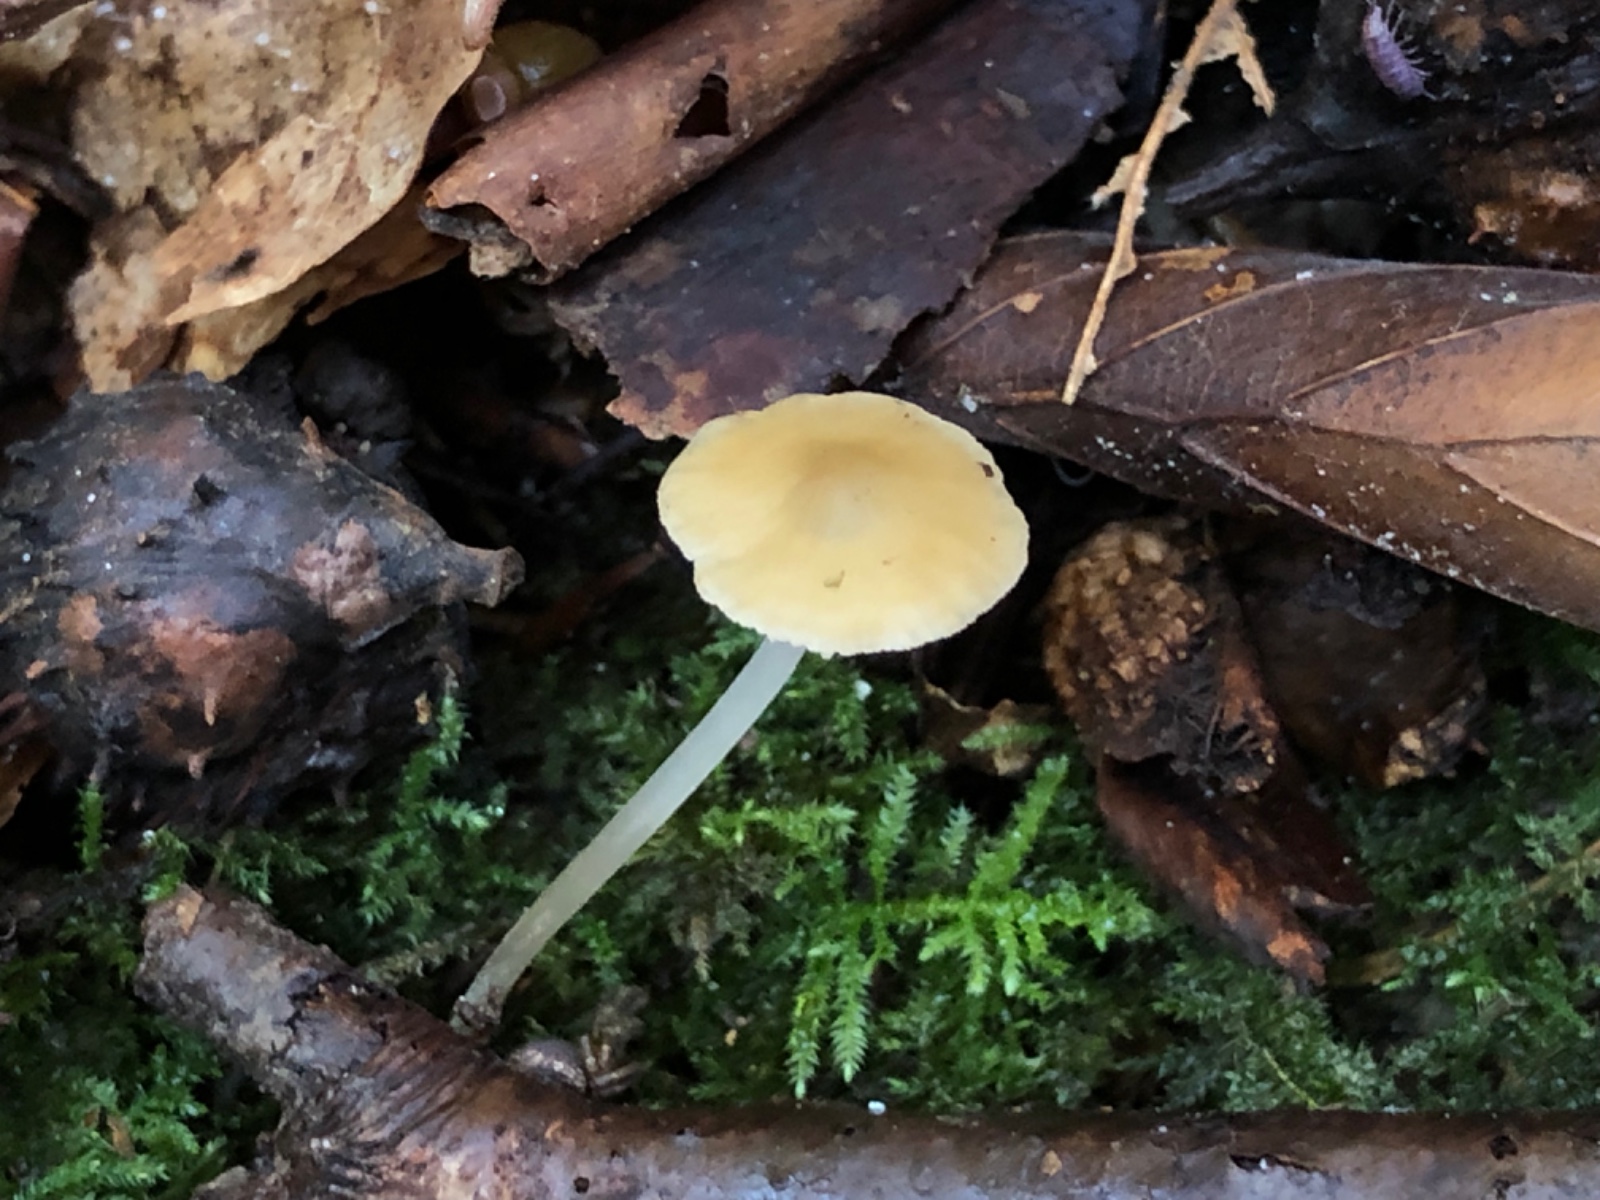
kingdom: Fungi
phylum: Basidiomycota
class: Agaricomycetes
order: Agaricales
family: Porotheleaceae
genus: Hydropodia
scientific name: Hydropodia subalpina
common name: vår-fnugfod
